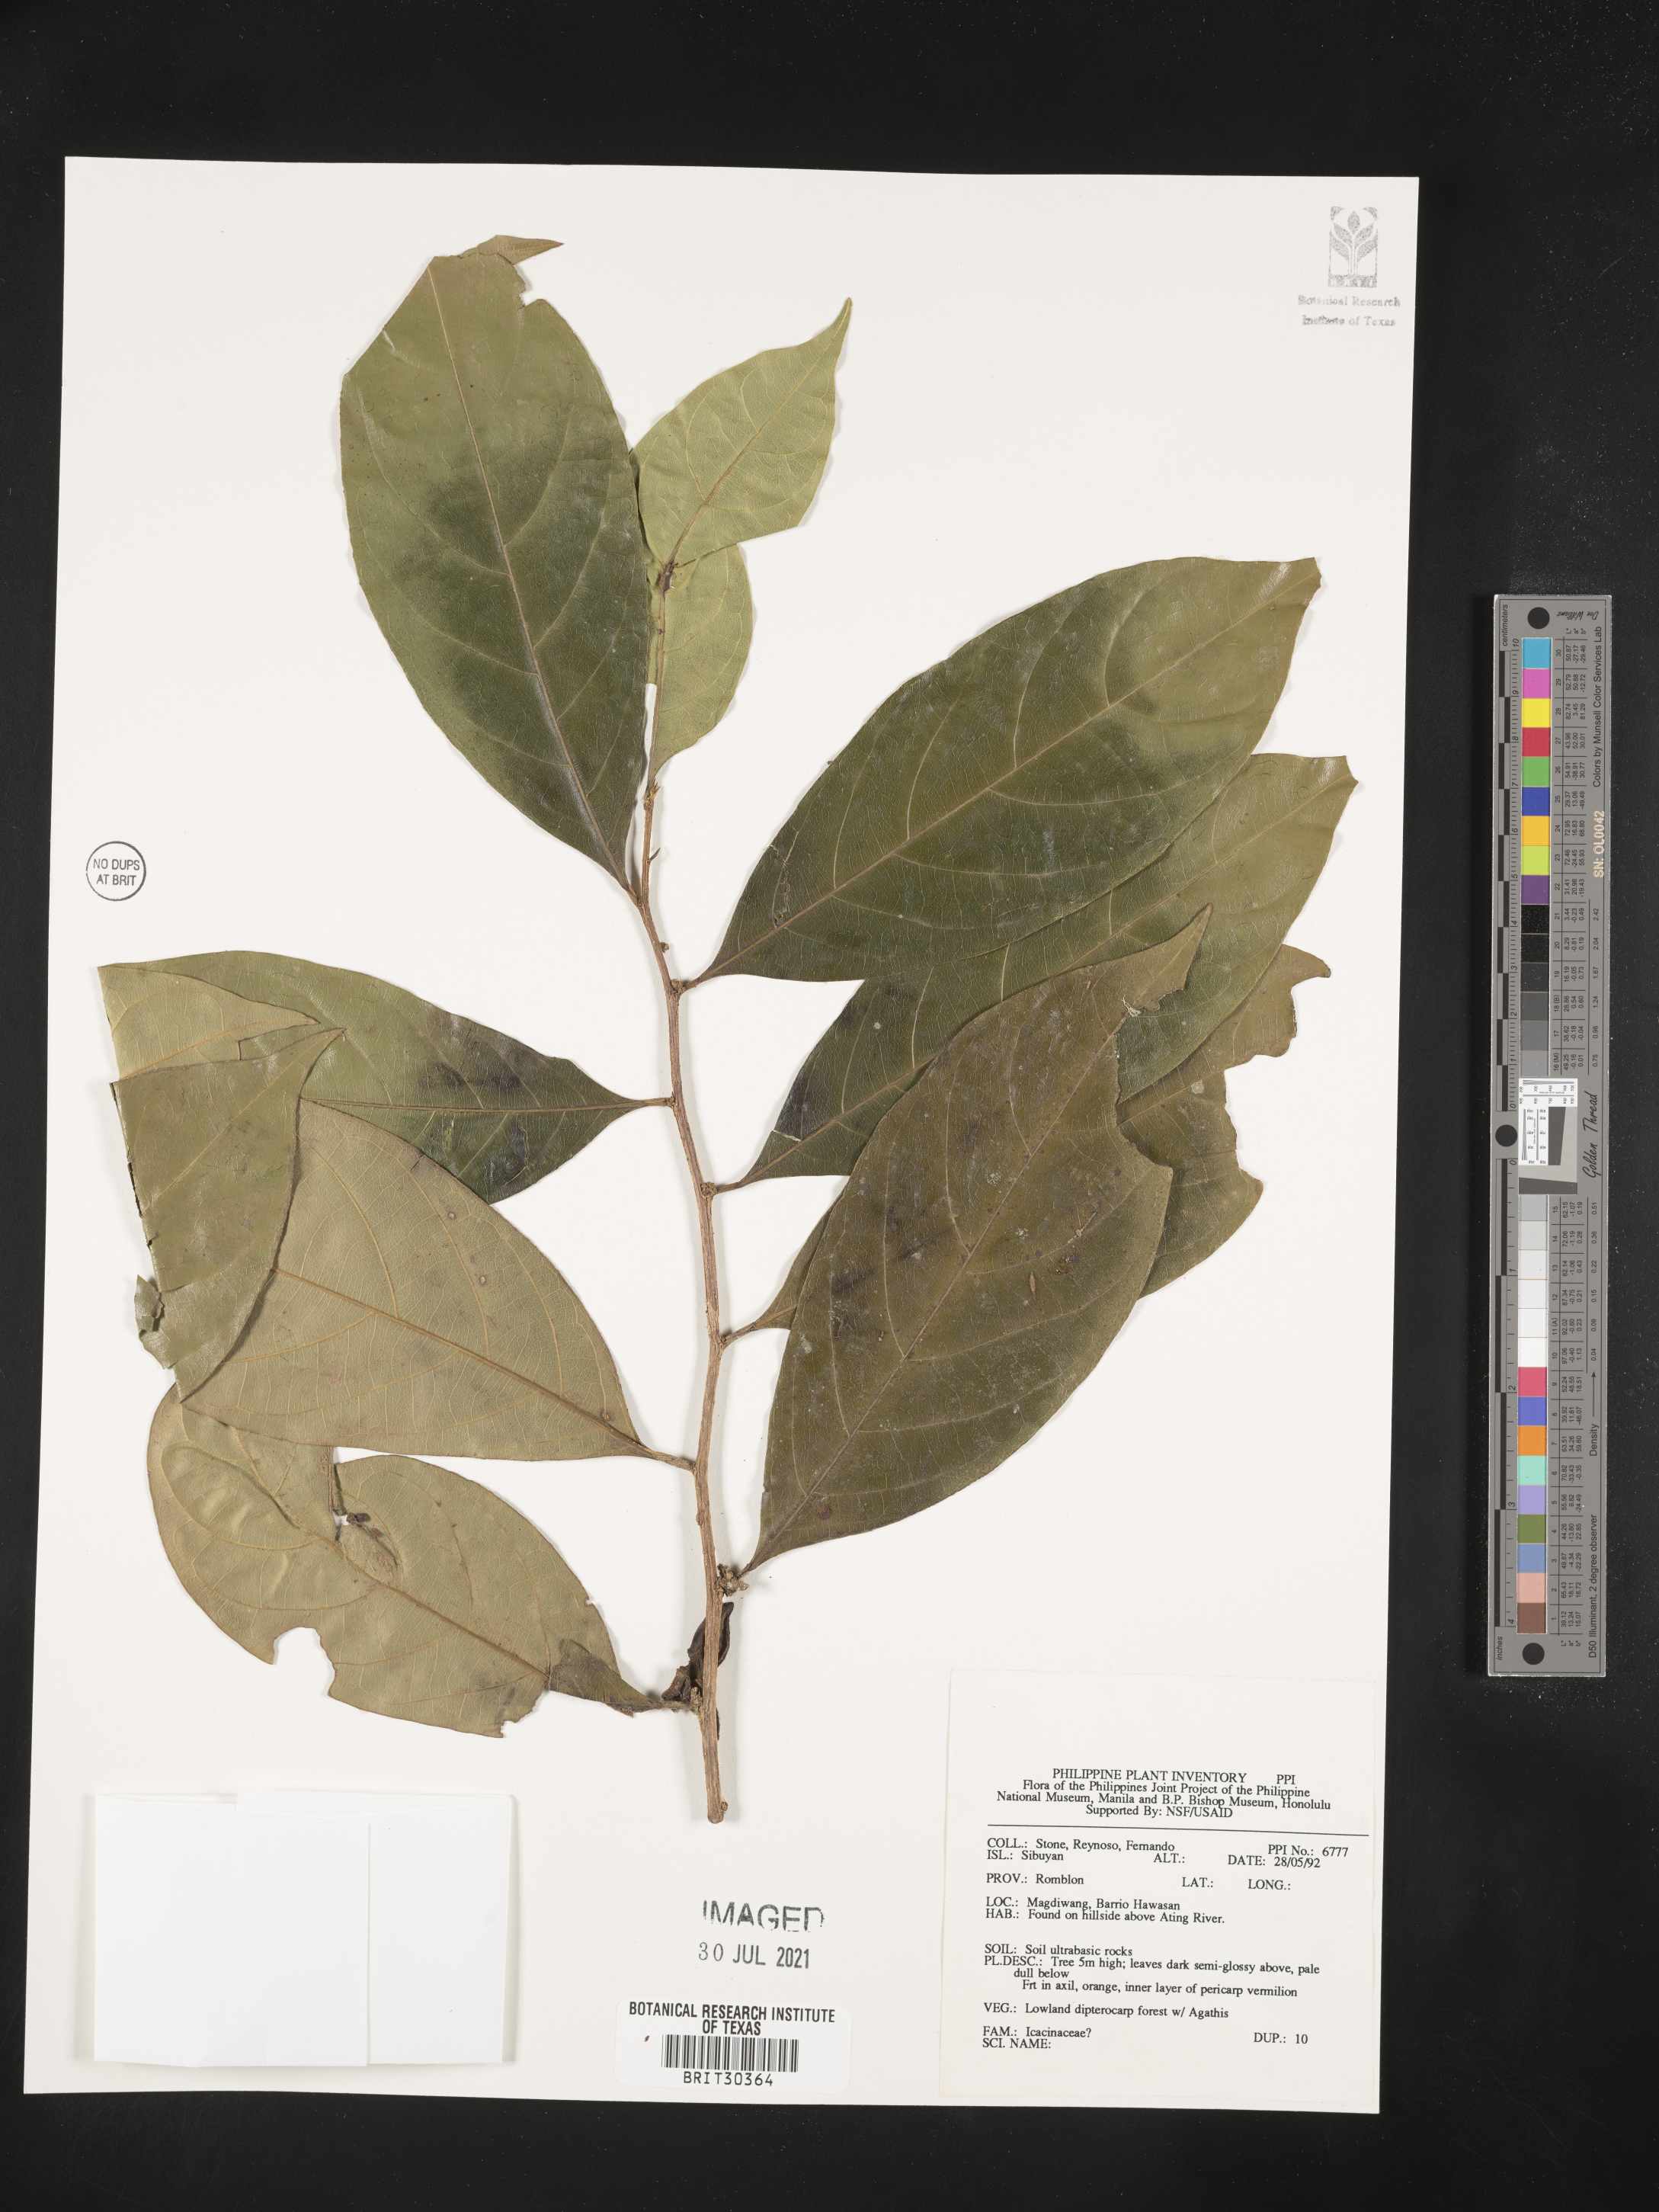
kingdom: Plantae
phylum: Tracheophyta
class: Magnoliopsida
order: Icacinales
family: Icacinaceae
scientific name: Icacinaceae
